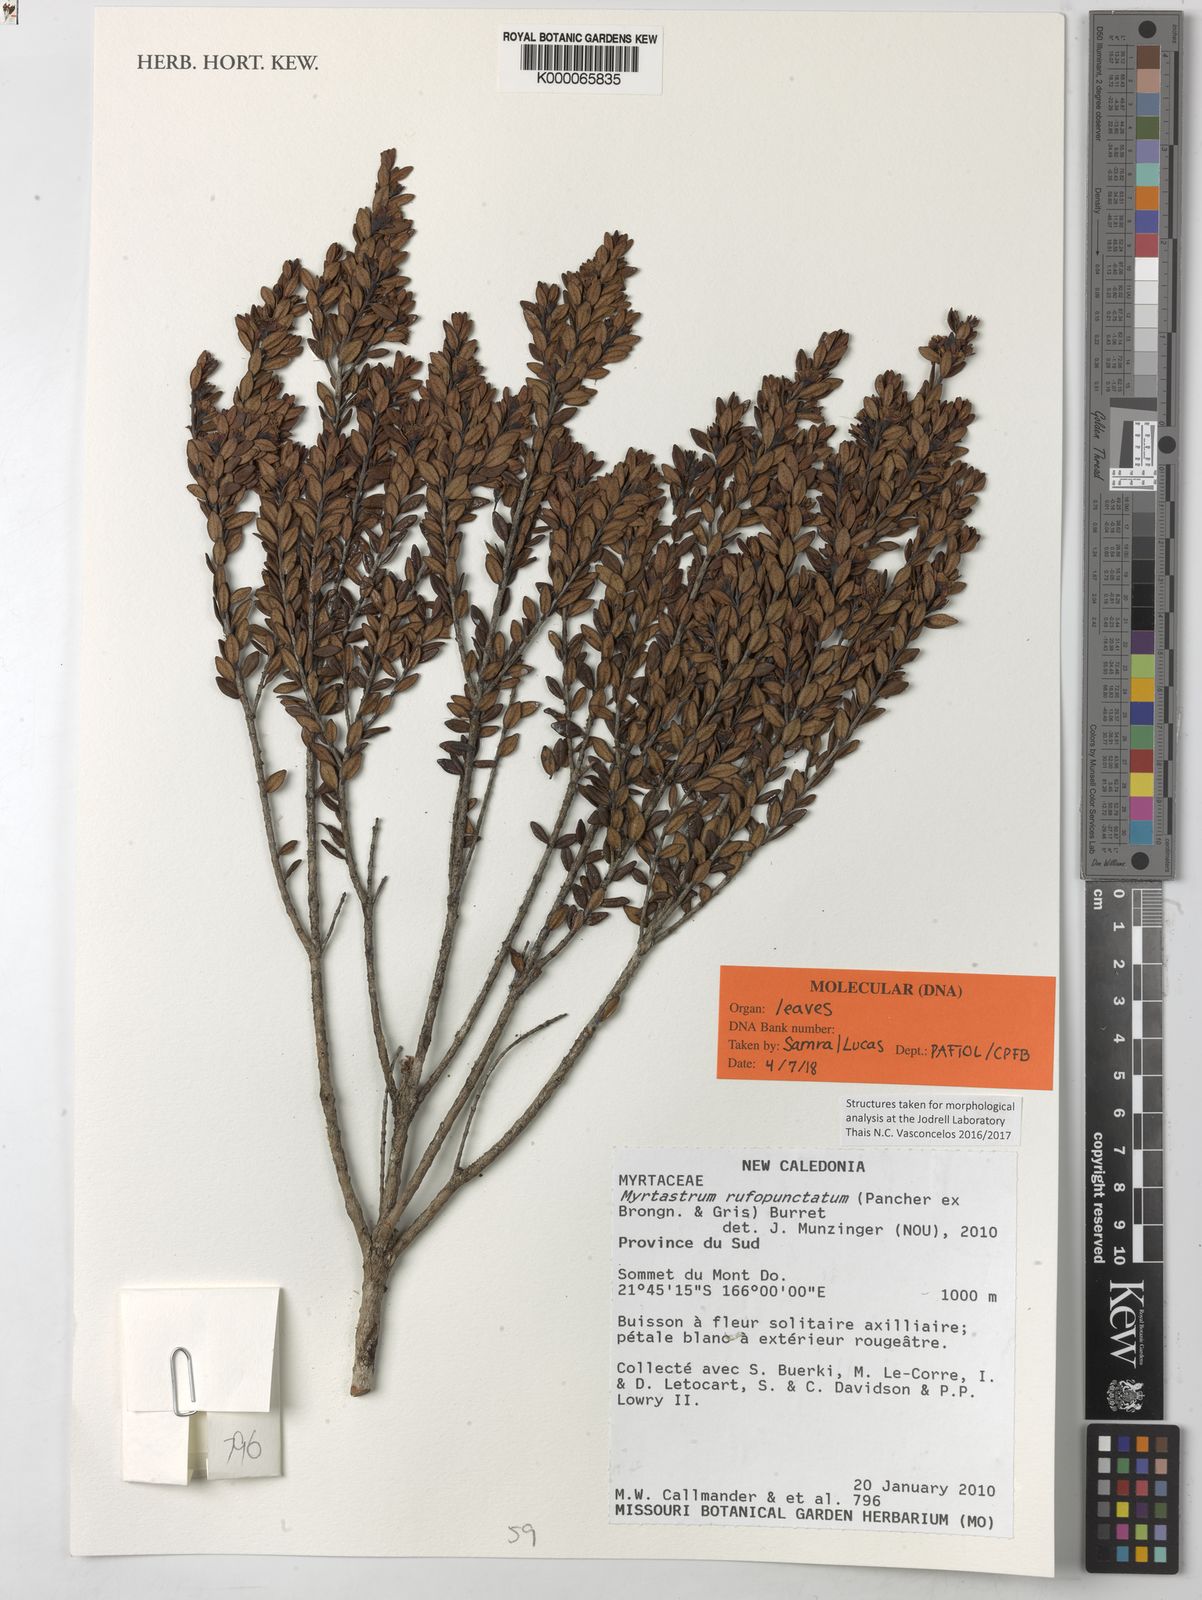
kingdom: Plantae
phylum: Tracheophyta
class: Magnoliopsida
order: Myrtales
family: Myrtaceae
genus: Myrtastrum
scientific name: Myrtastrum rufopunctatum
